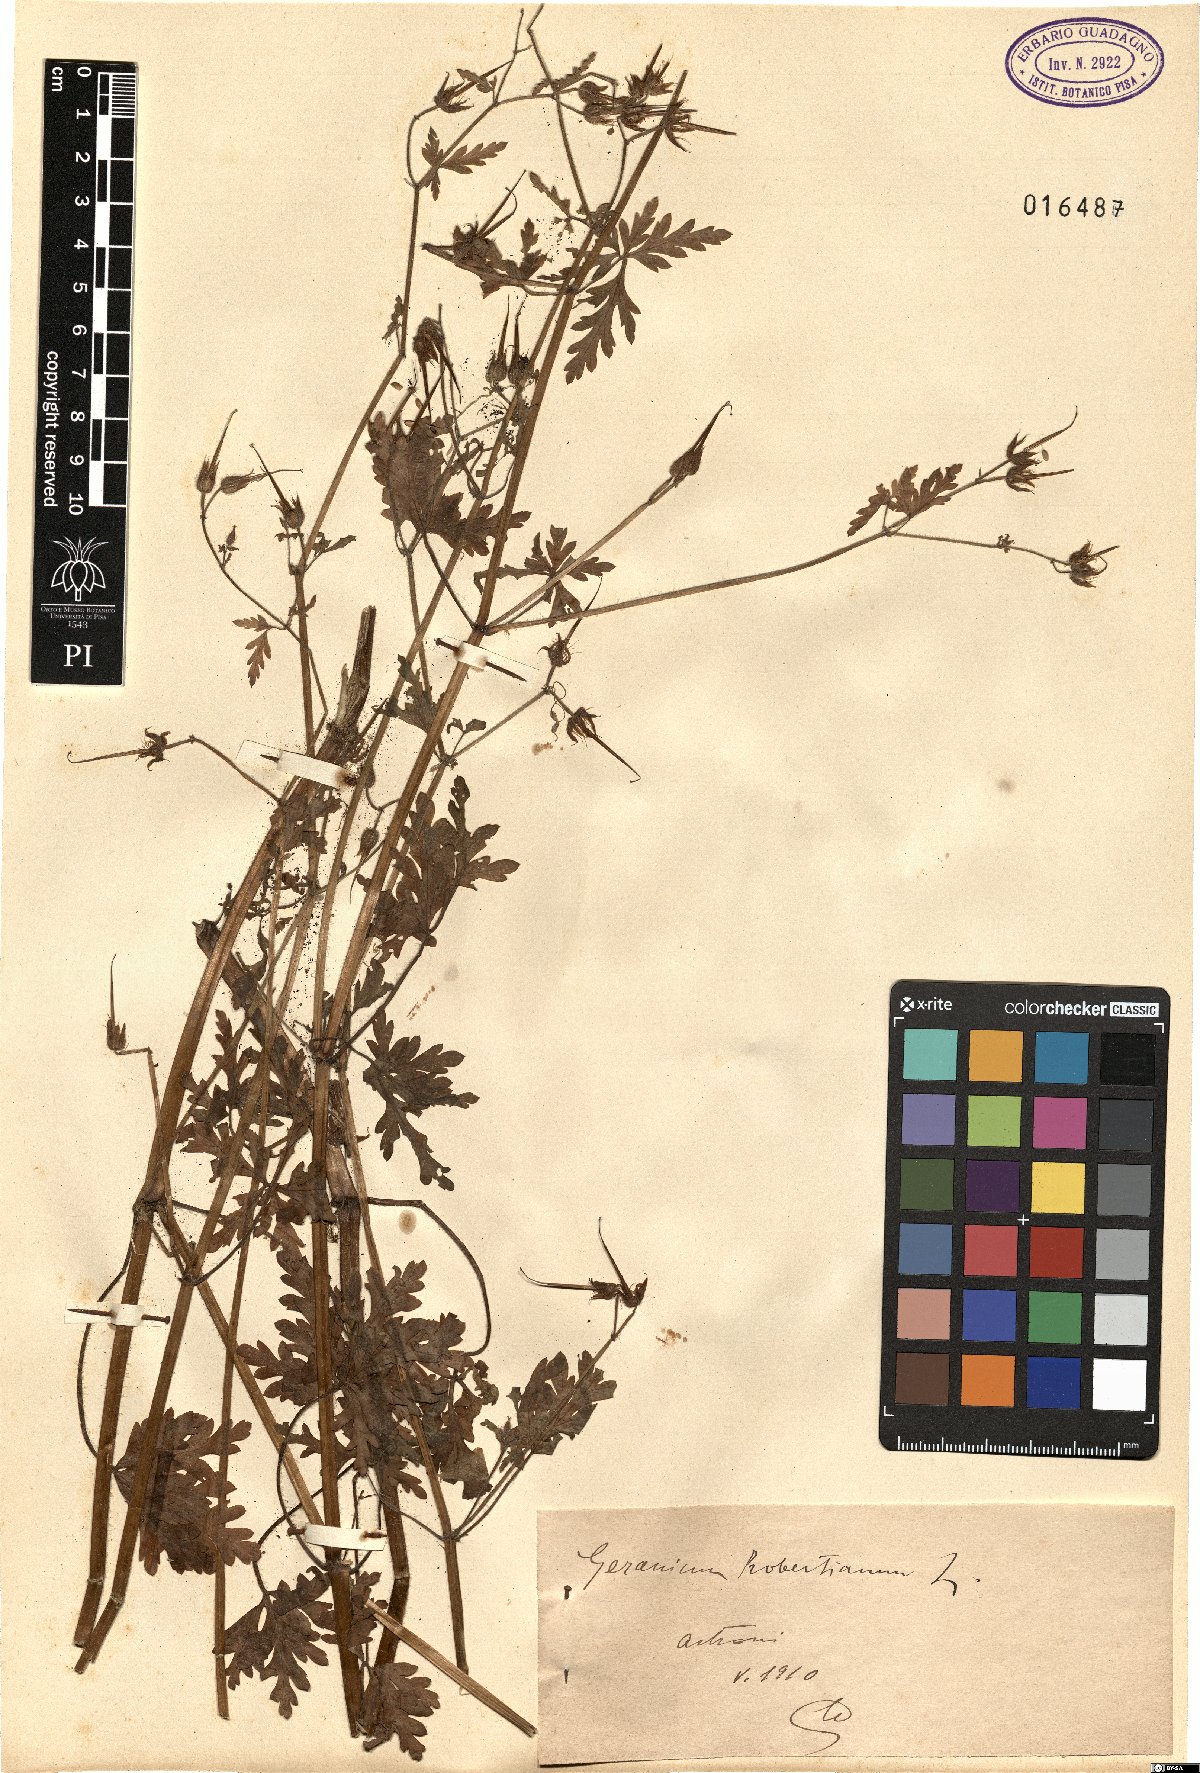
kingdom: Plantae
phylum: Tracheophyta
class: Magnoliopsida
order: Geraniales
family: Geraniaceae
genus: Geranium
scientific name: Geranium robertianum
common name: Herb-robert
